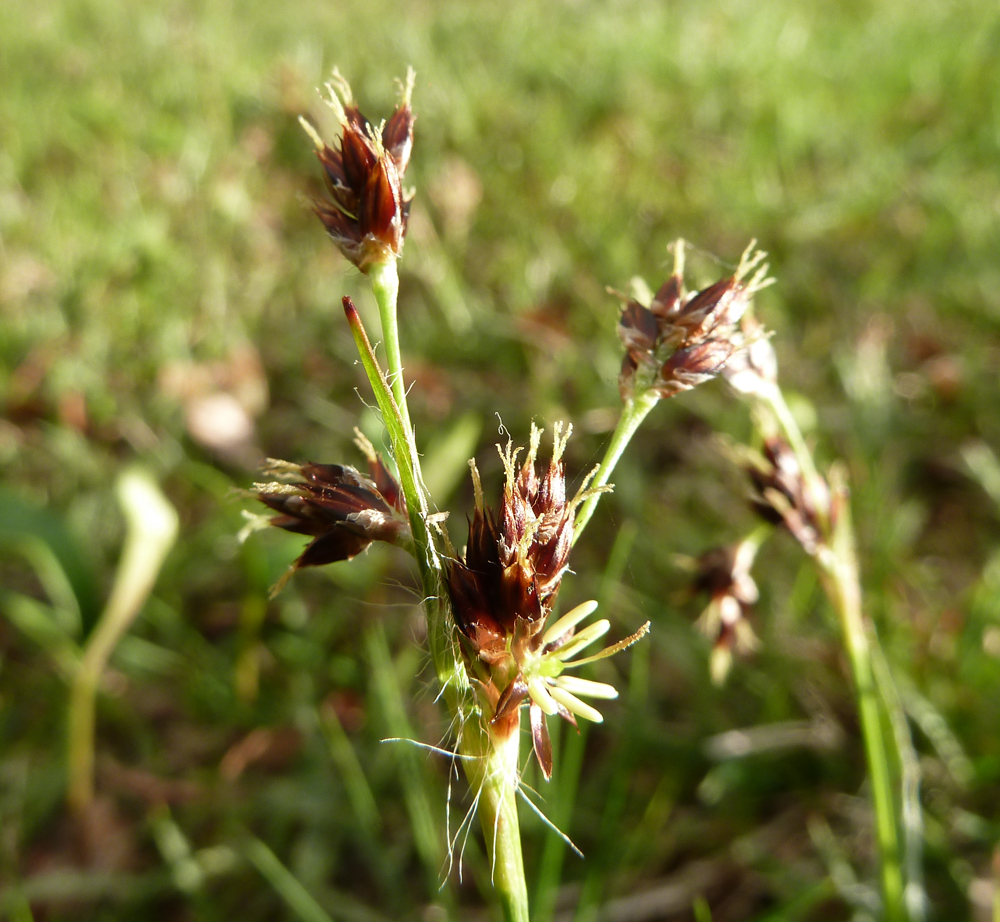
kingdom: Plantae
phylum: Tracheophyta
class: Liliopsida
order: Poales
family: Juncaceae
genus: Luzula
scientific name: Luzula campestris
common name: Field wood-rush
